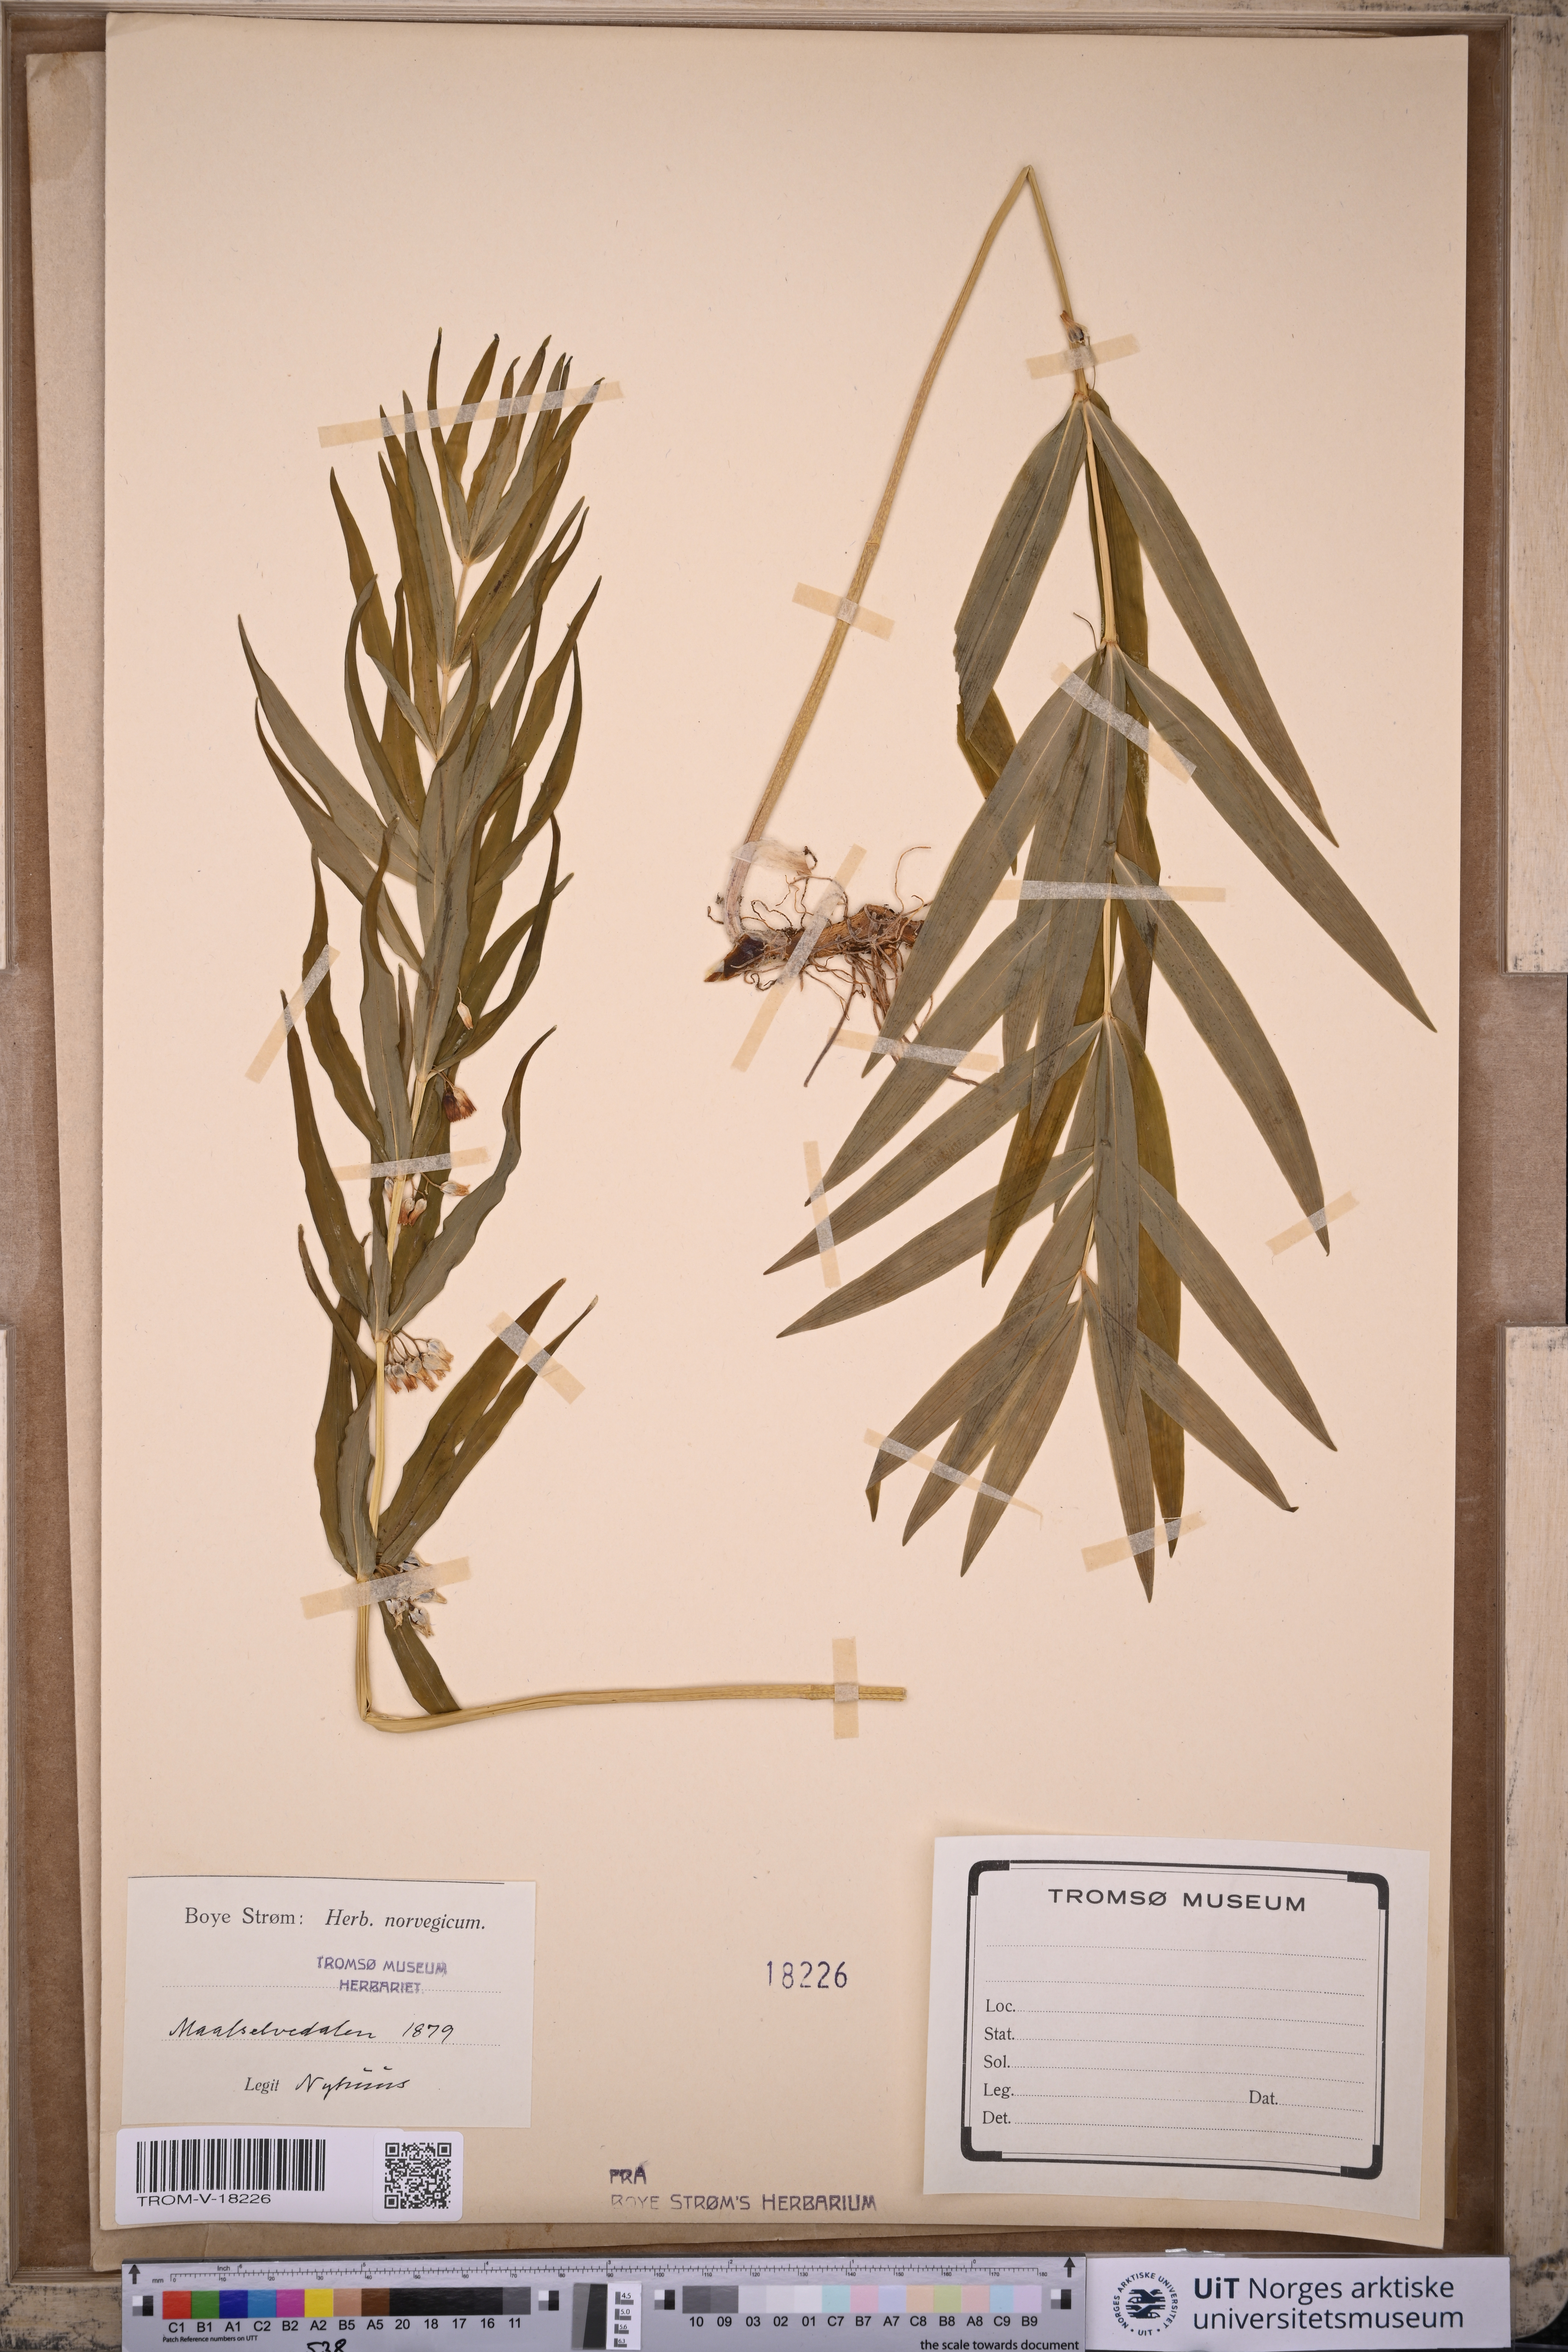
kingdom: Plantae
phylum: Tracheophyta
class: Liliopsida
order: Asparagales
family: Asparagaceae
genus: Polygonatum
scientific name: Polygonatum verticillatum
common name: Whorled solomon's-seal
